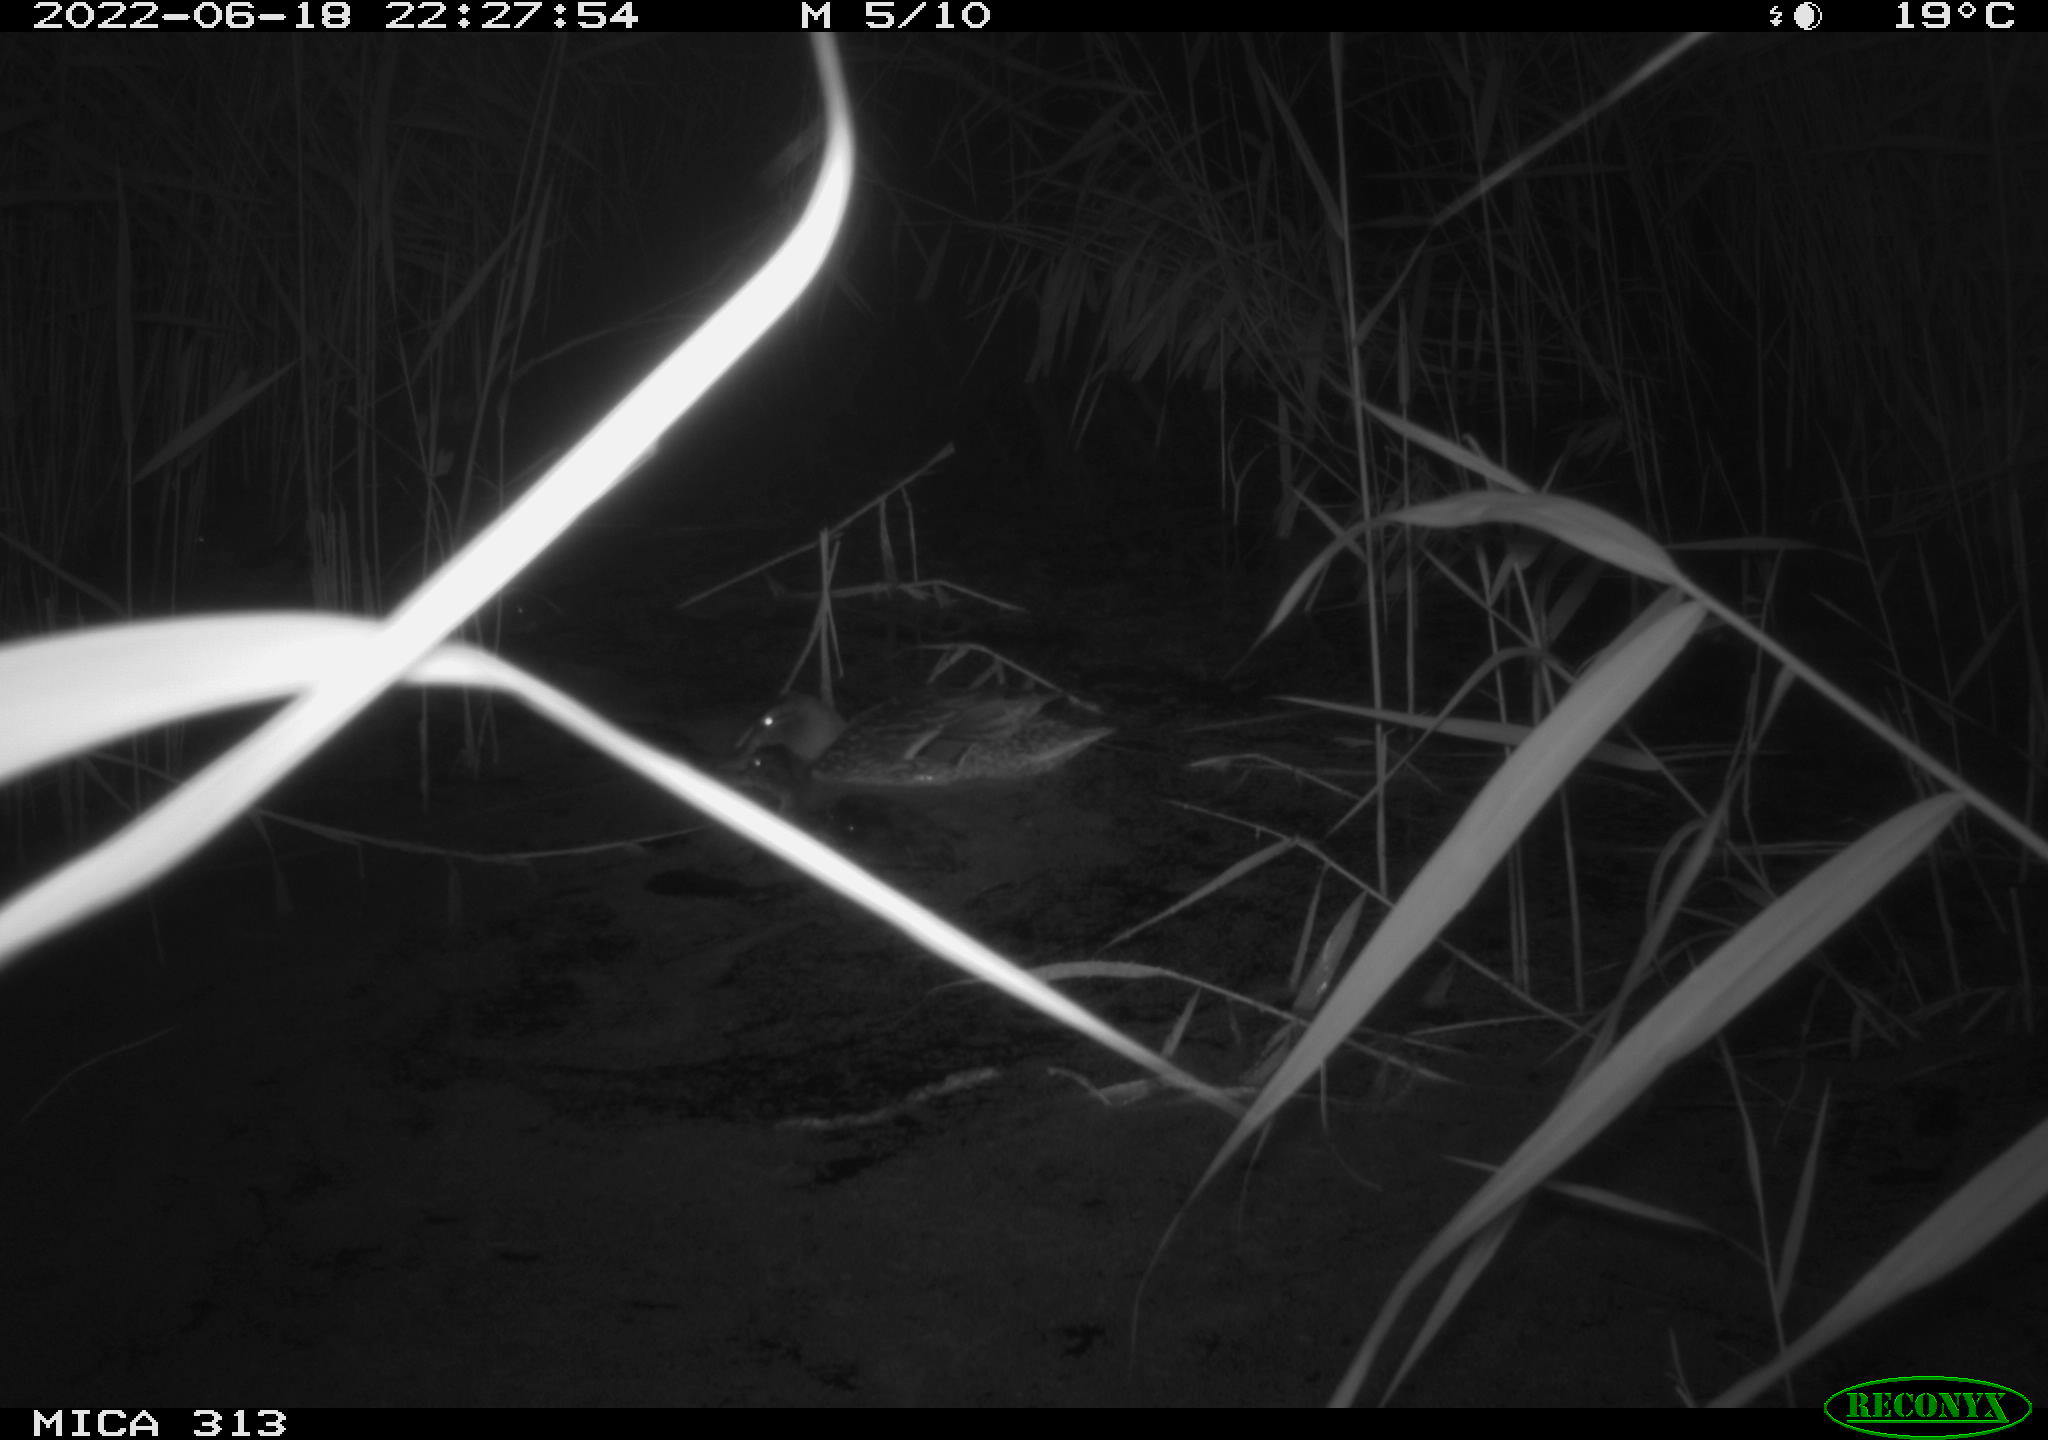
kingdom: Animalia
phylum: Chordata
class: Aves
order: Anseriformes
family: Anatidae
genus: Anas
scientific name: Anas platyrhynchos
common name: Mallard
